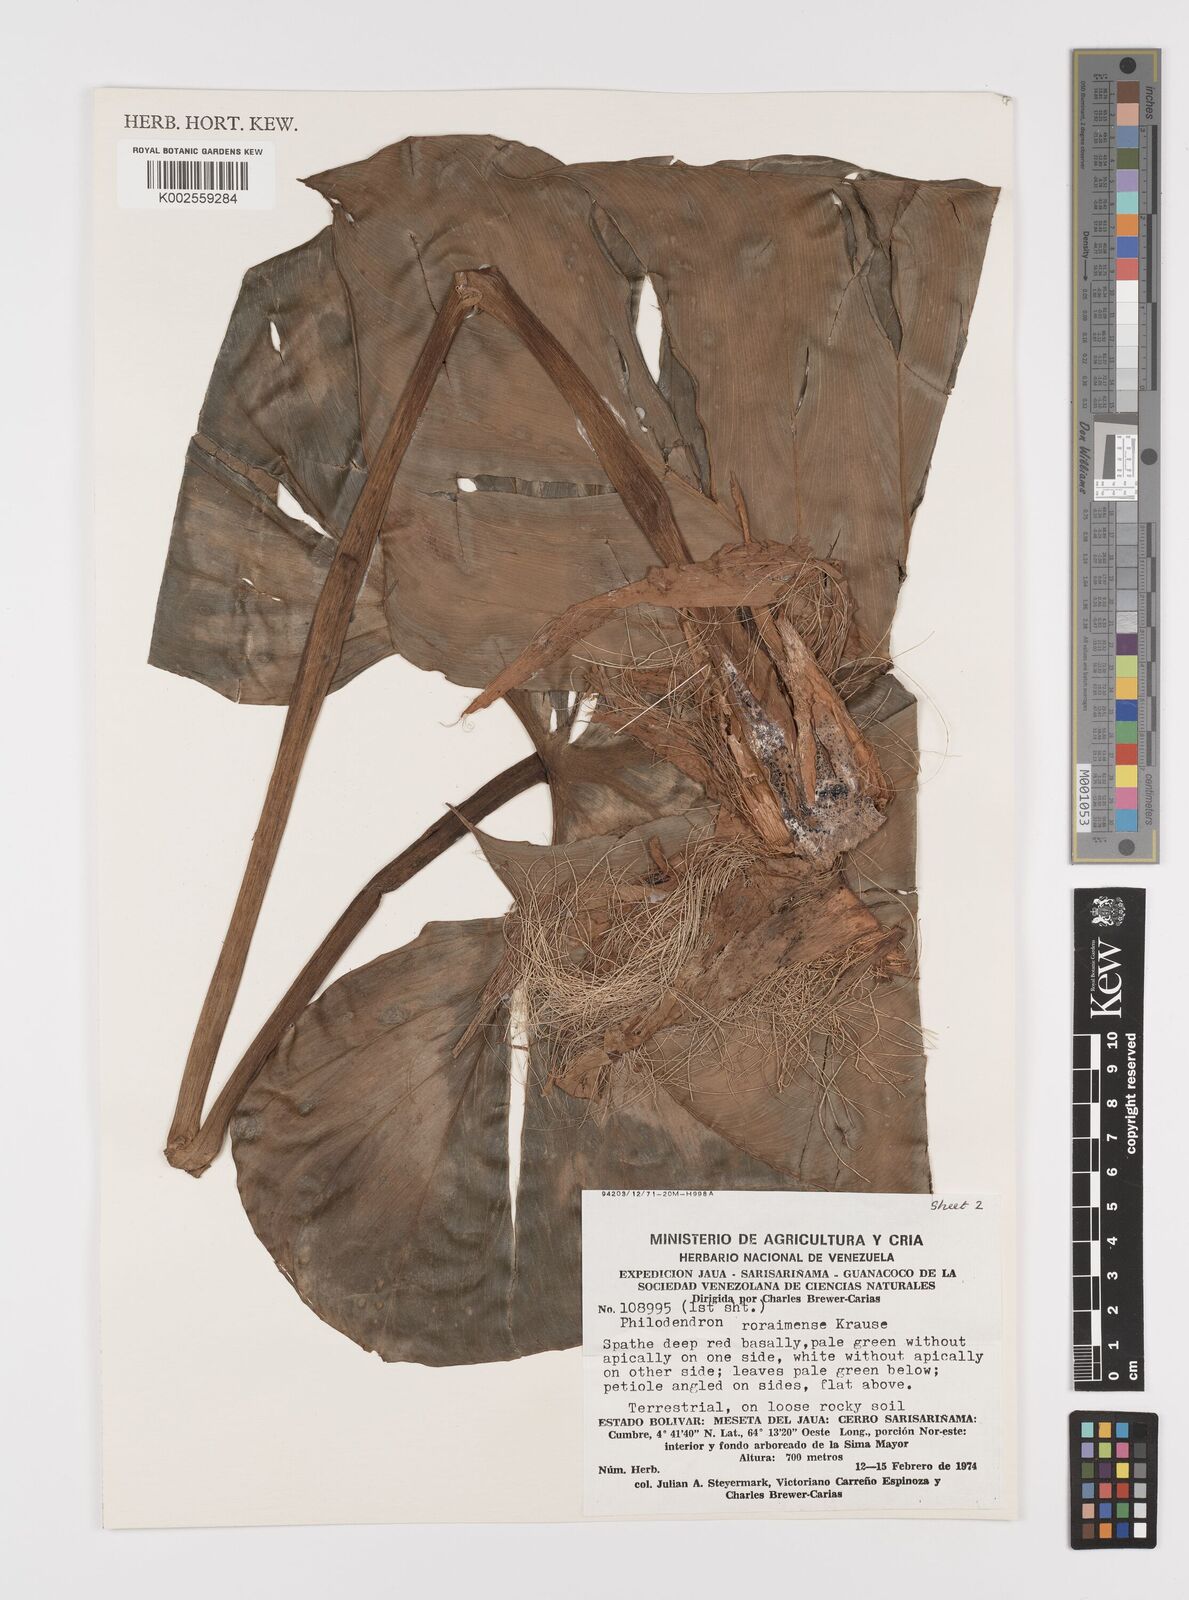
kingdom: Plantae
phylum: Tracheophyta
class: Liliopsida
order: Alismatales
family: Araceae
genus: Philodendron
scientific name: Philodendron roraimae
